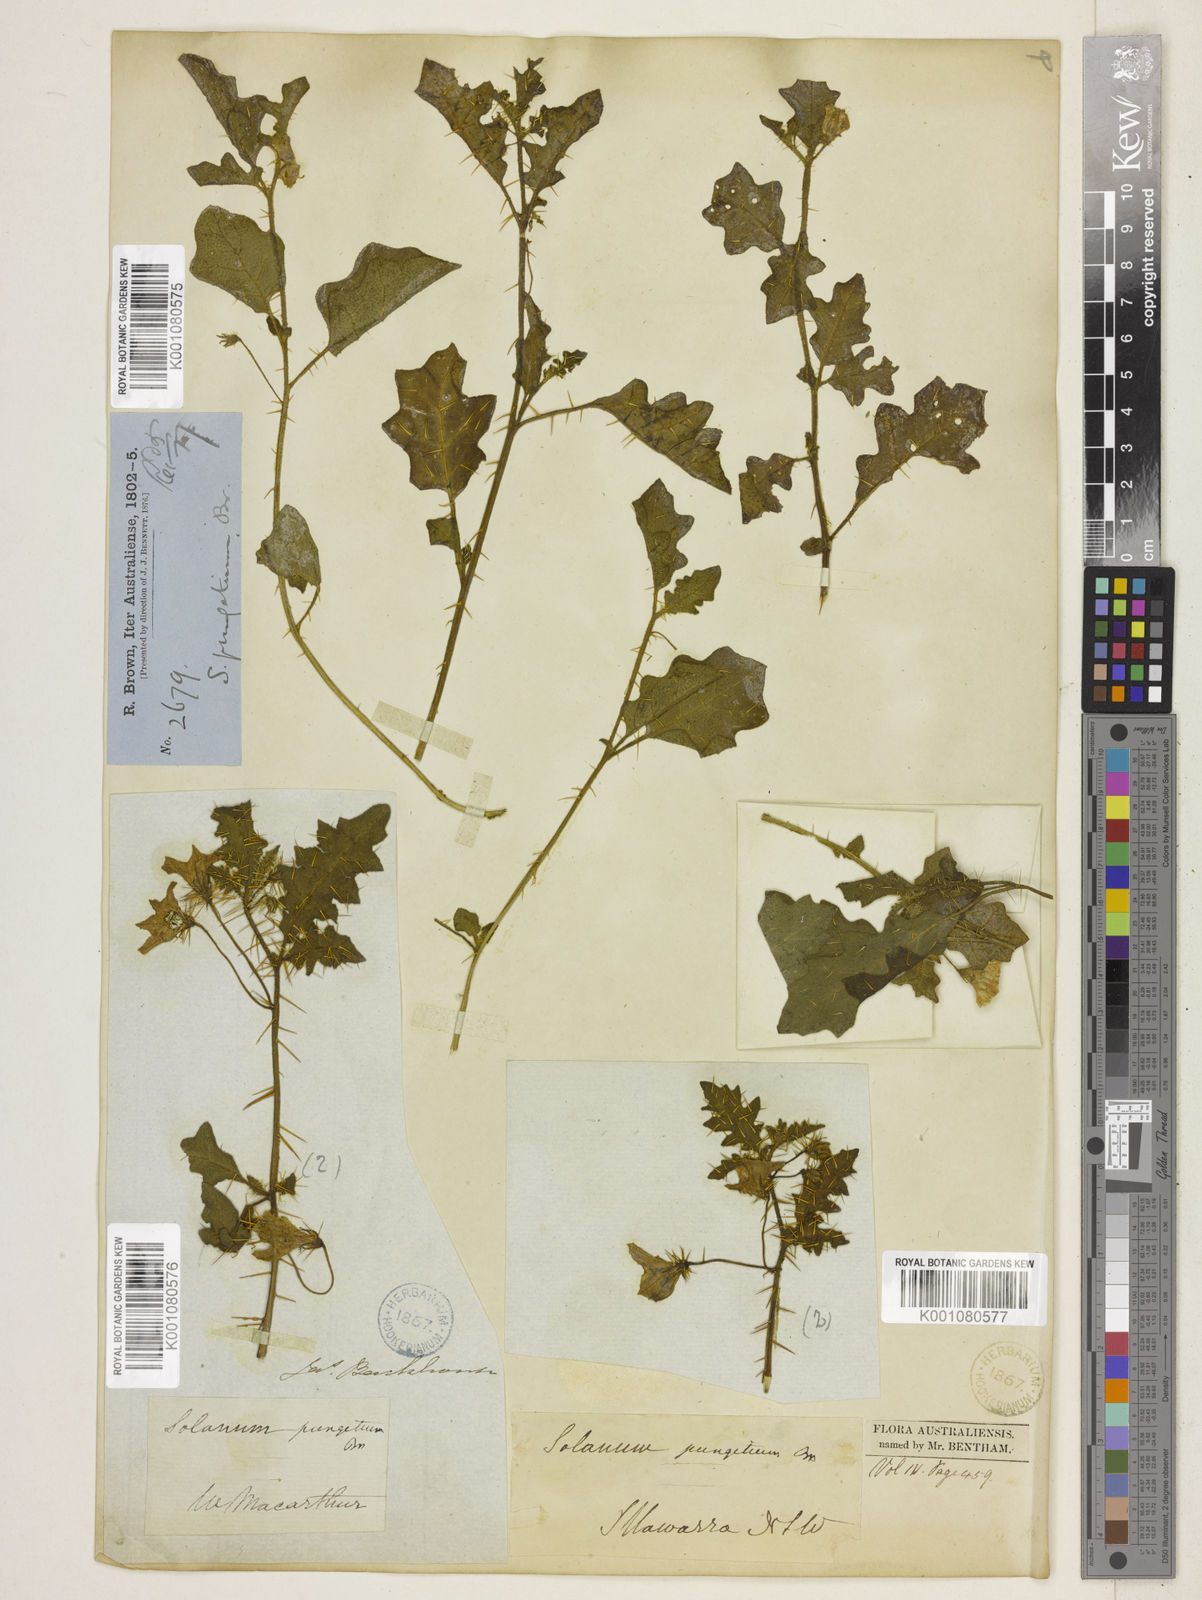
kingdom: Plantae
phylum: Tracheophyta
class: Magnoliopsida
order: Solanales
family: Solanaceae
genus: Solanum
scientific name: Solanum pungetium
